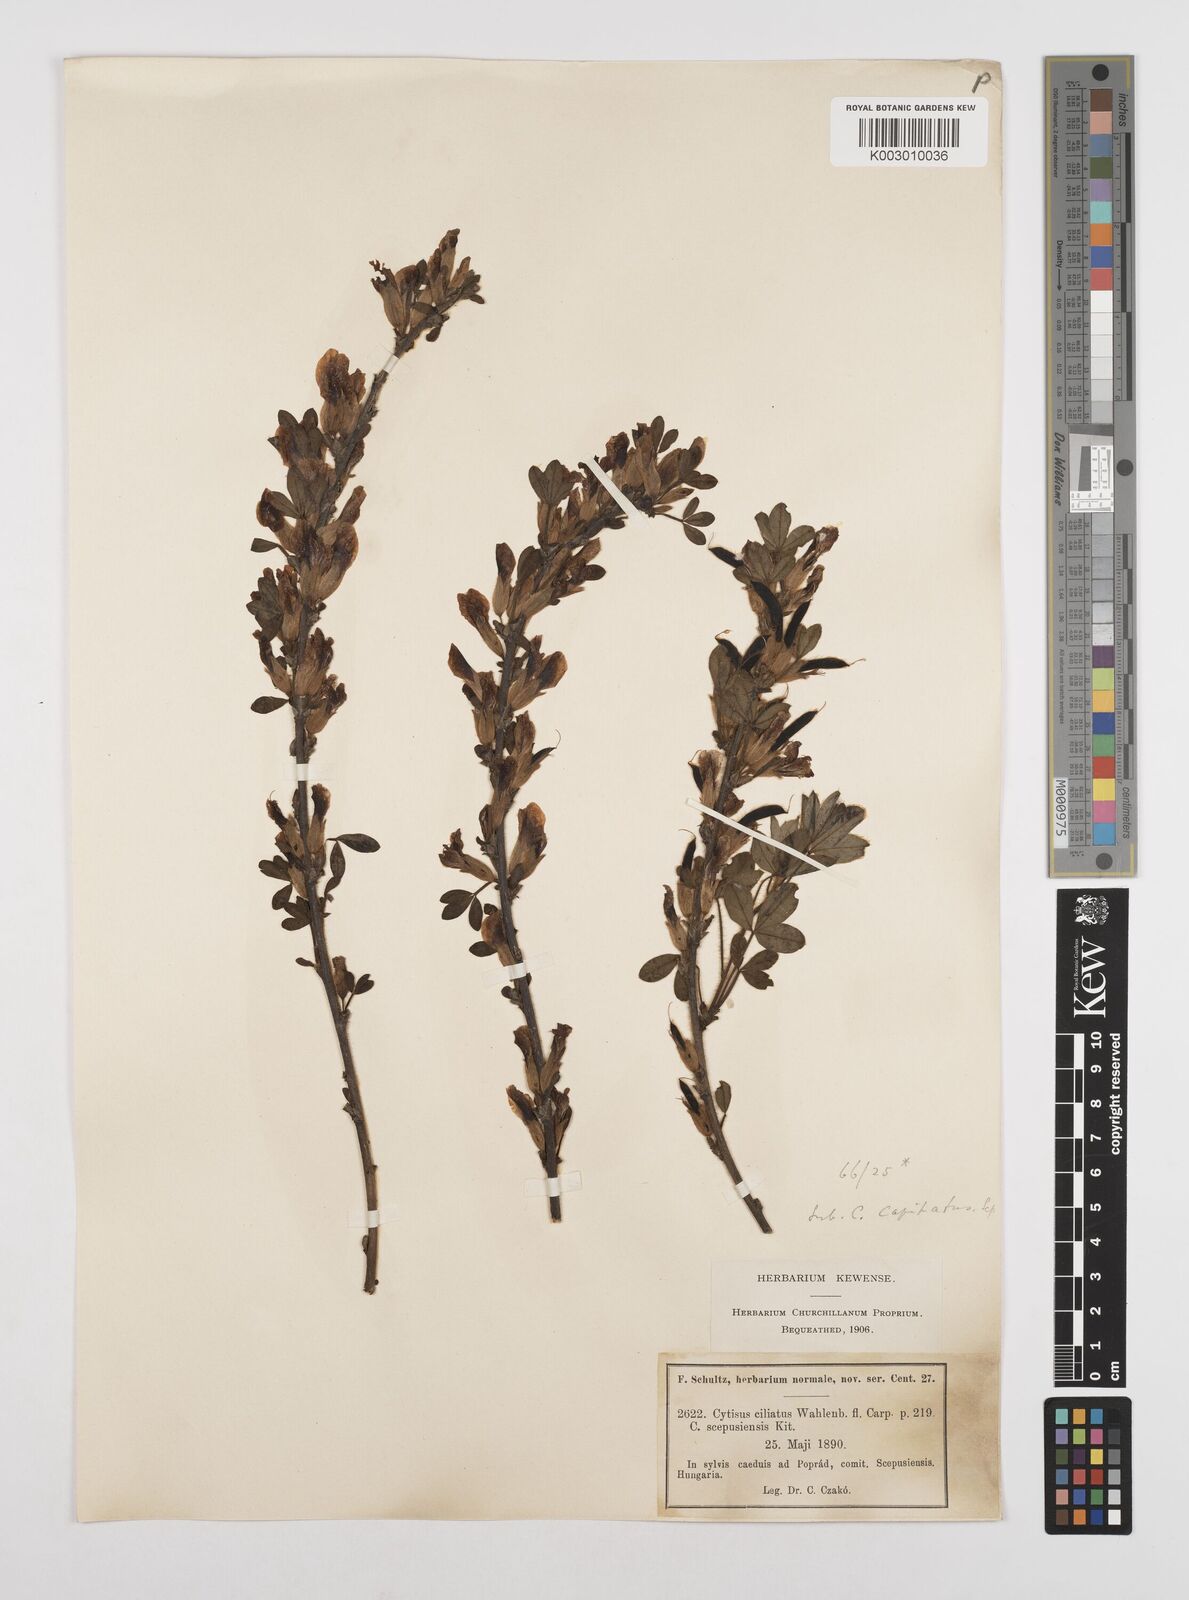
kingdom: Plantae
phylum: Tracheophyta
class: Magnoliopsida
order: Fabales
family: Fabaceae
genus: Chamaecytisus
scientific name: Chamaecytisus hirsutus
